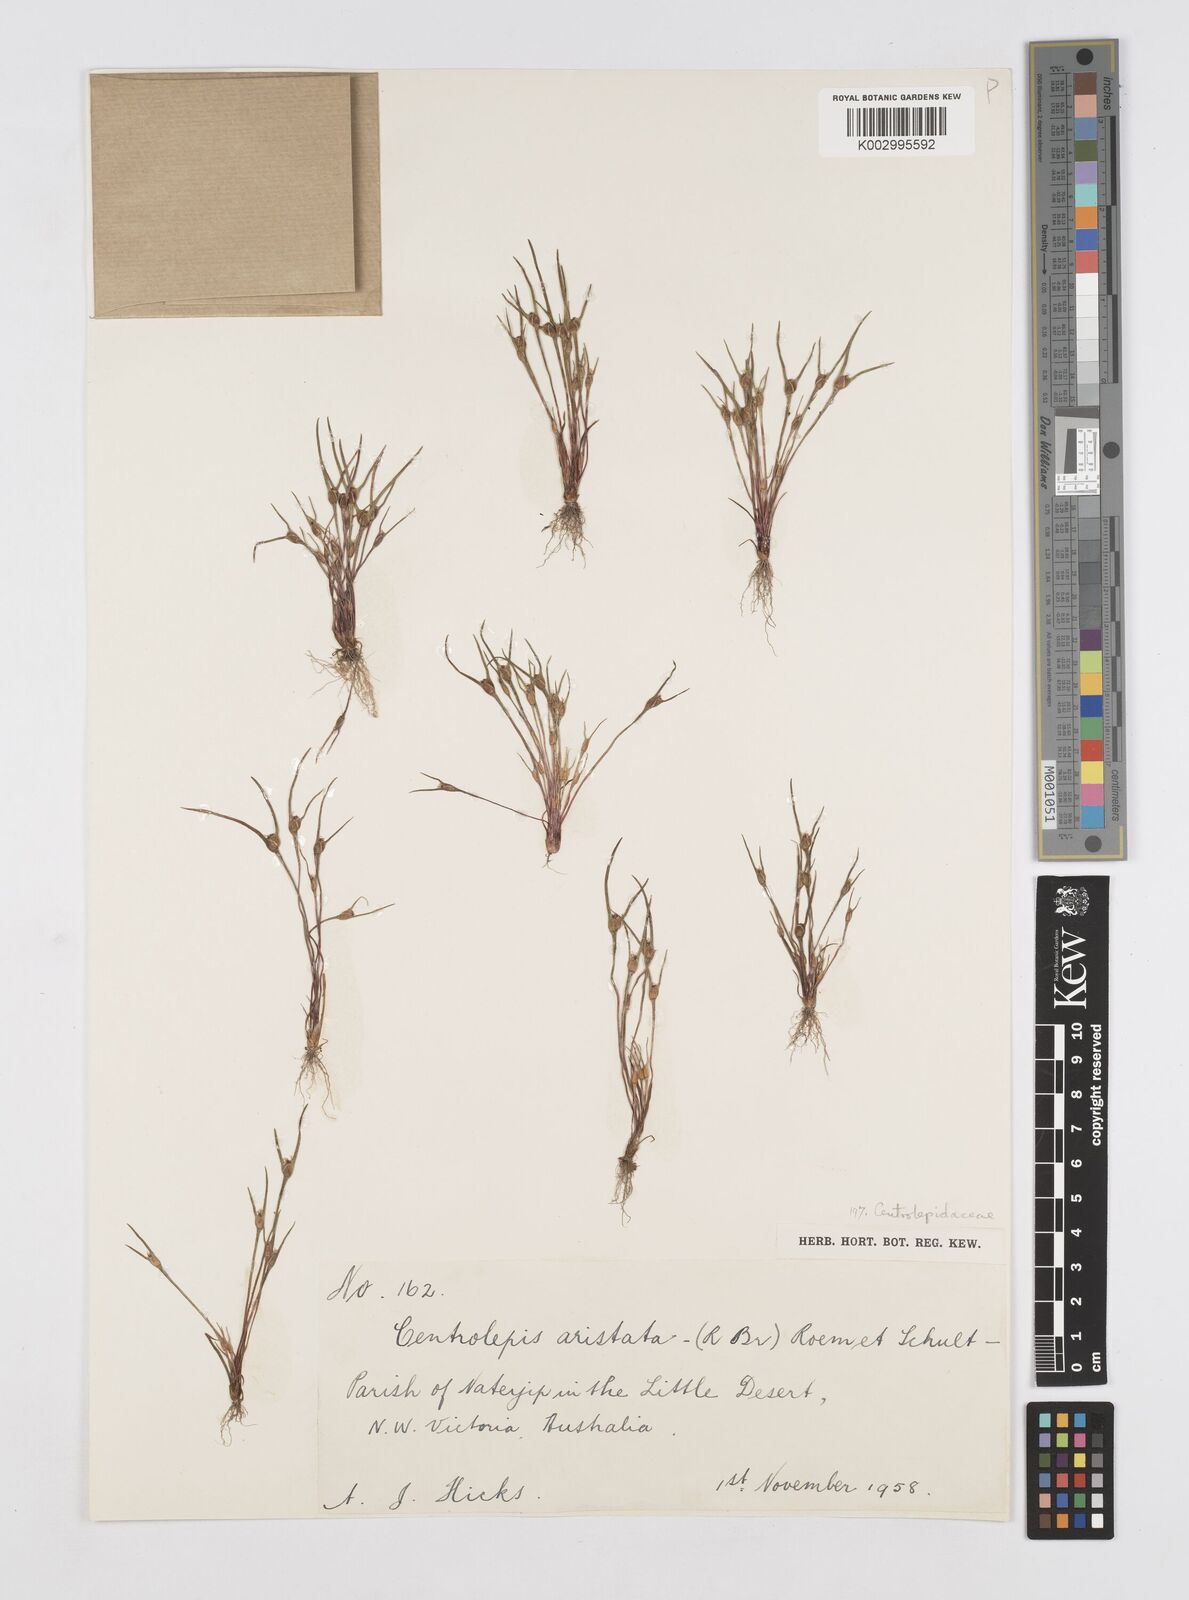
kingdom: Plantae
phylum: Tracheophyta
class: Liliopsida
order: Poales
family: Restionaceae
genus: Centrolepis
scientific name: Centrolepis aristata
